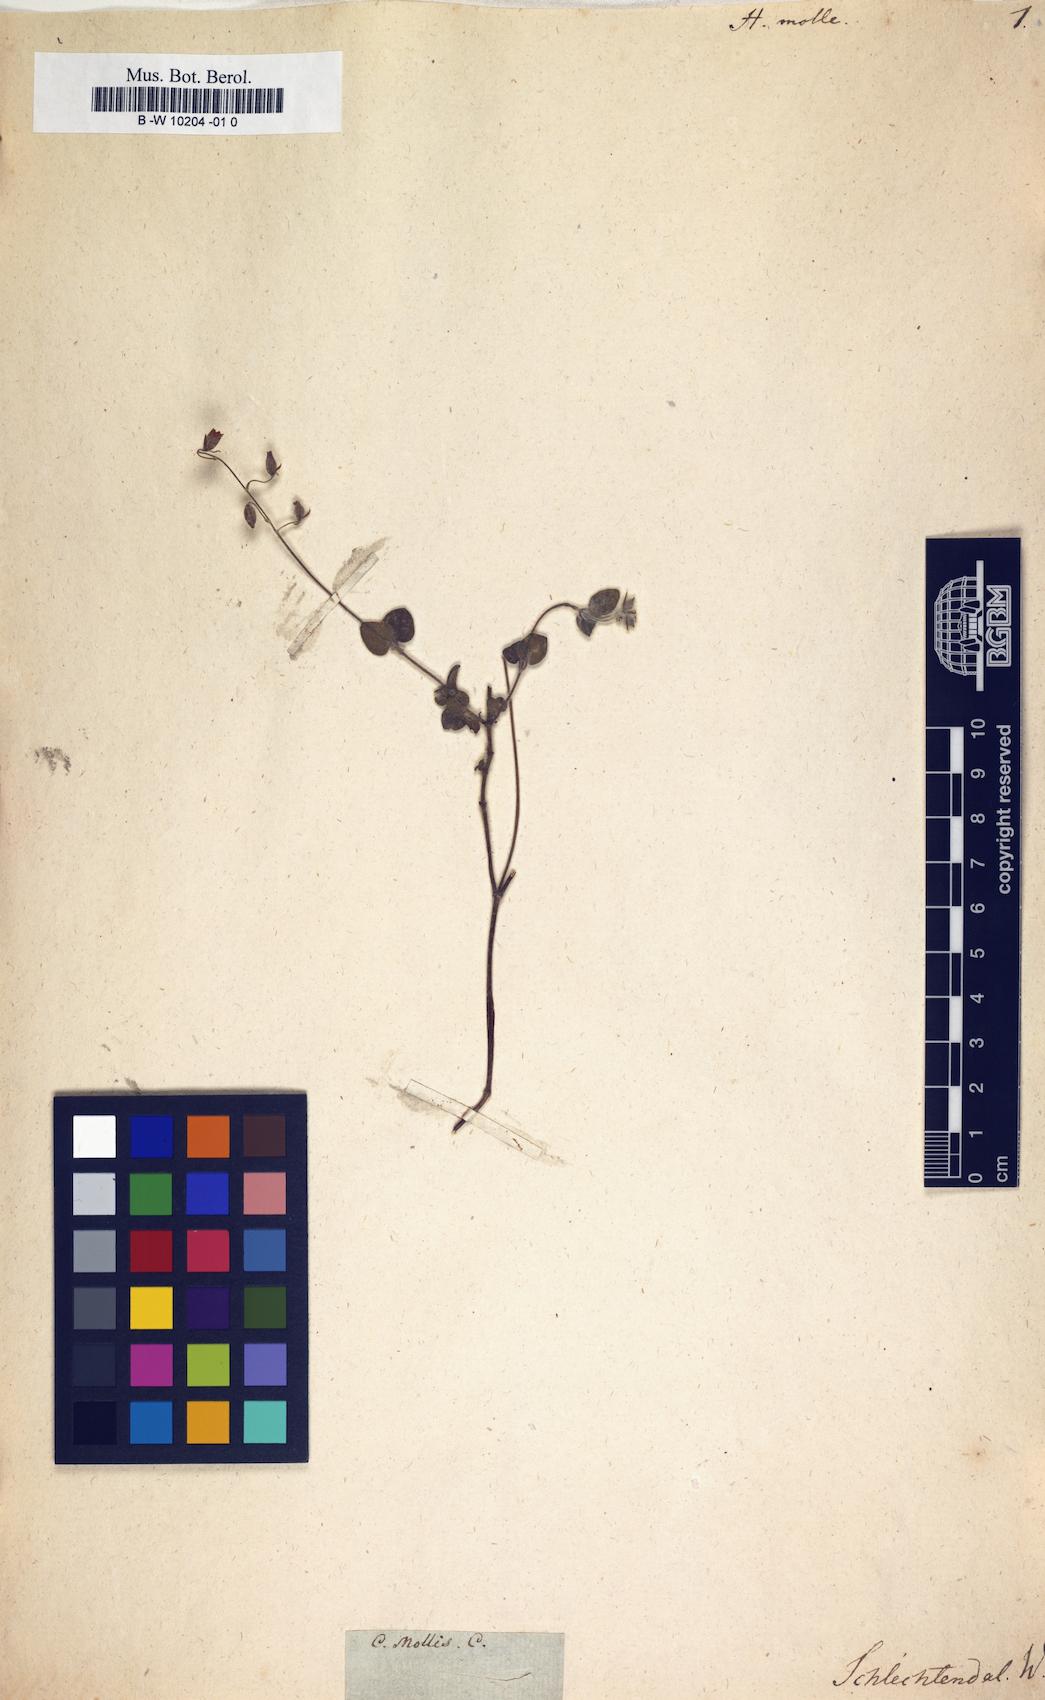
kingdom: Plantae
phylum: Tracheophyta
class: Magnoliopsida
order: Malvales
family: Cistaceae
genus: Helianthemum
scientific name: Helianthemum origanifolium
